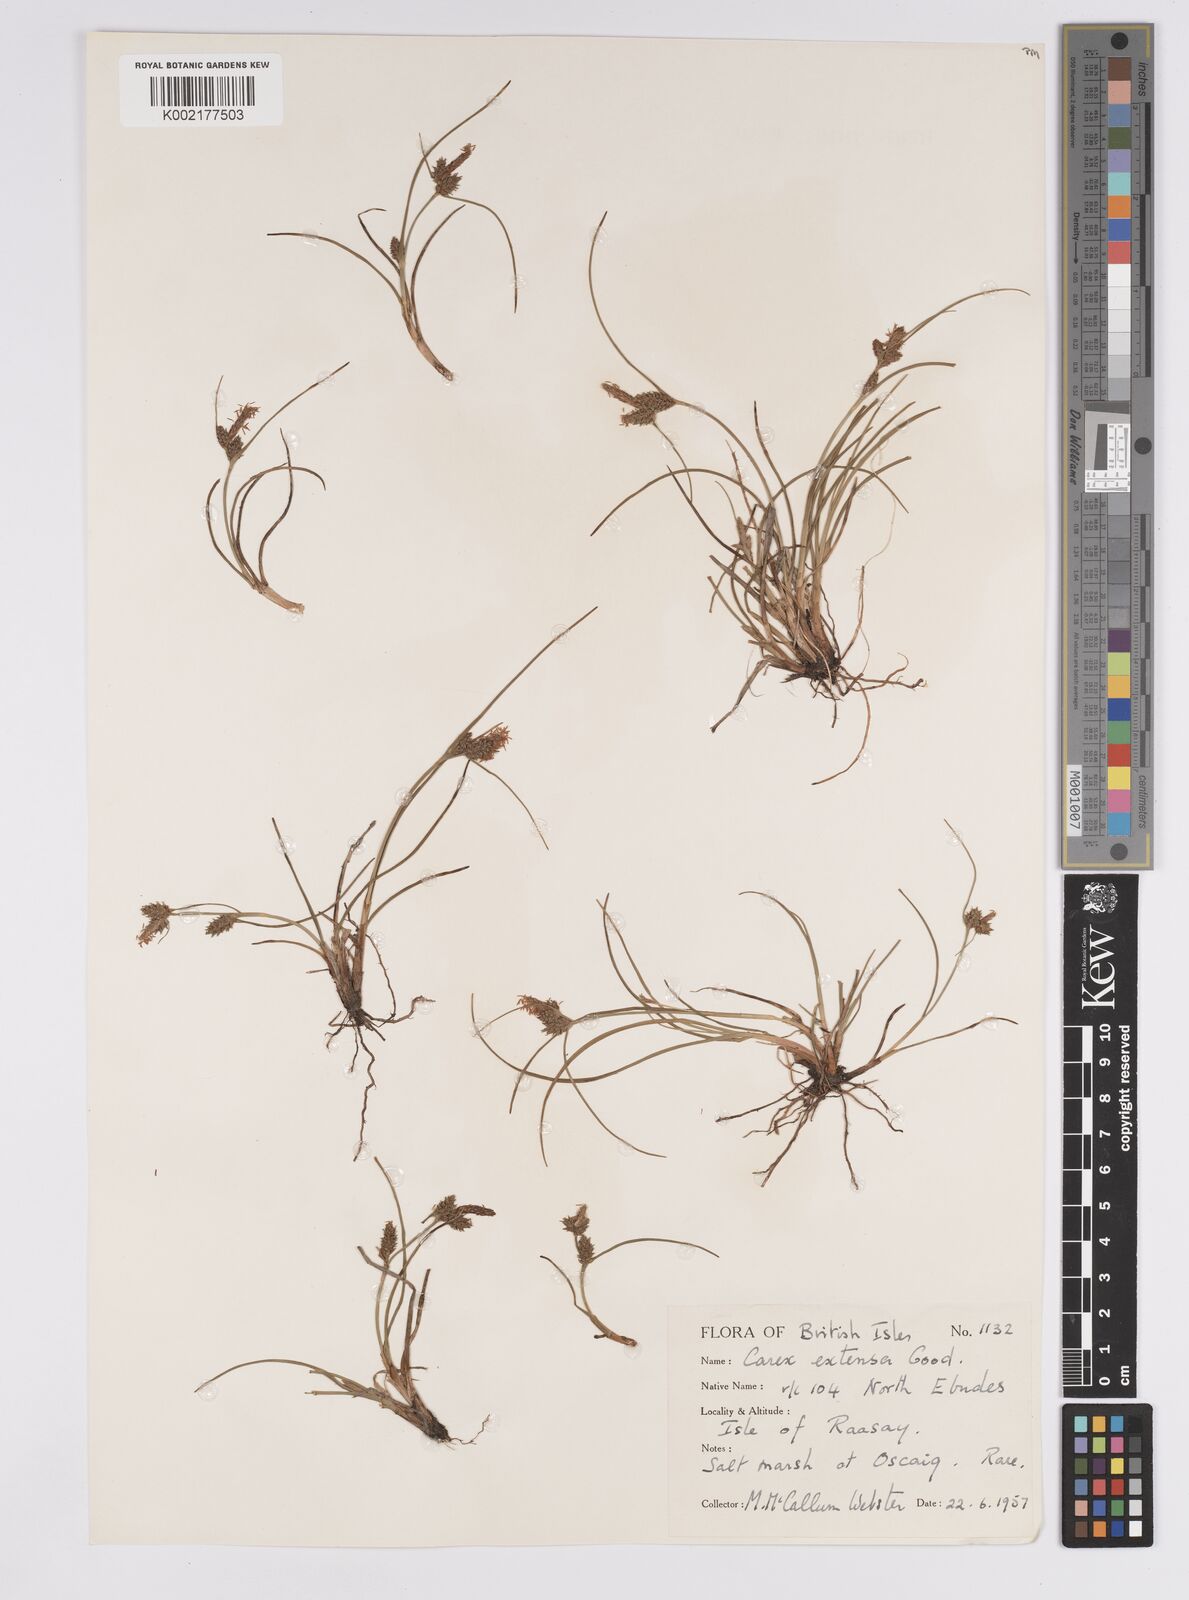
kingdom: Plantae
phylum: Tracheophyta
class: Liliopsida
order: Poales
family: Cyperaceae
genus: Carex
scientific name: Carex extensa
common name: Long-bracted sedge
